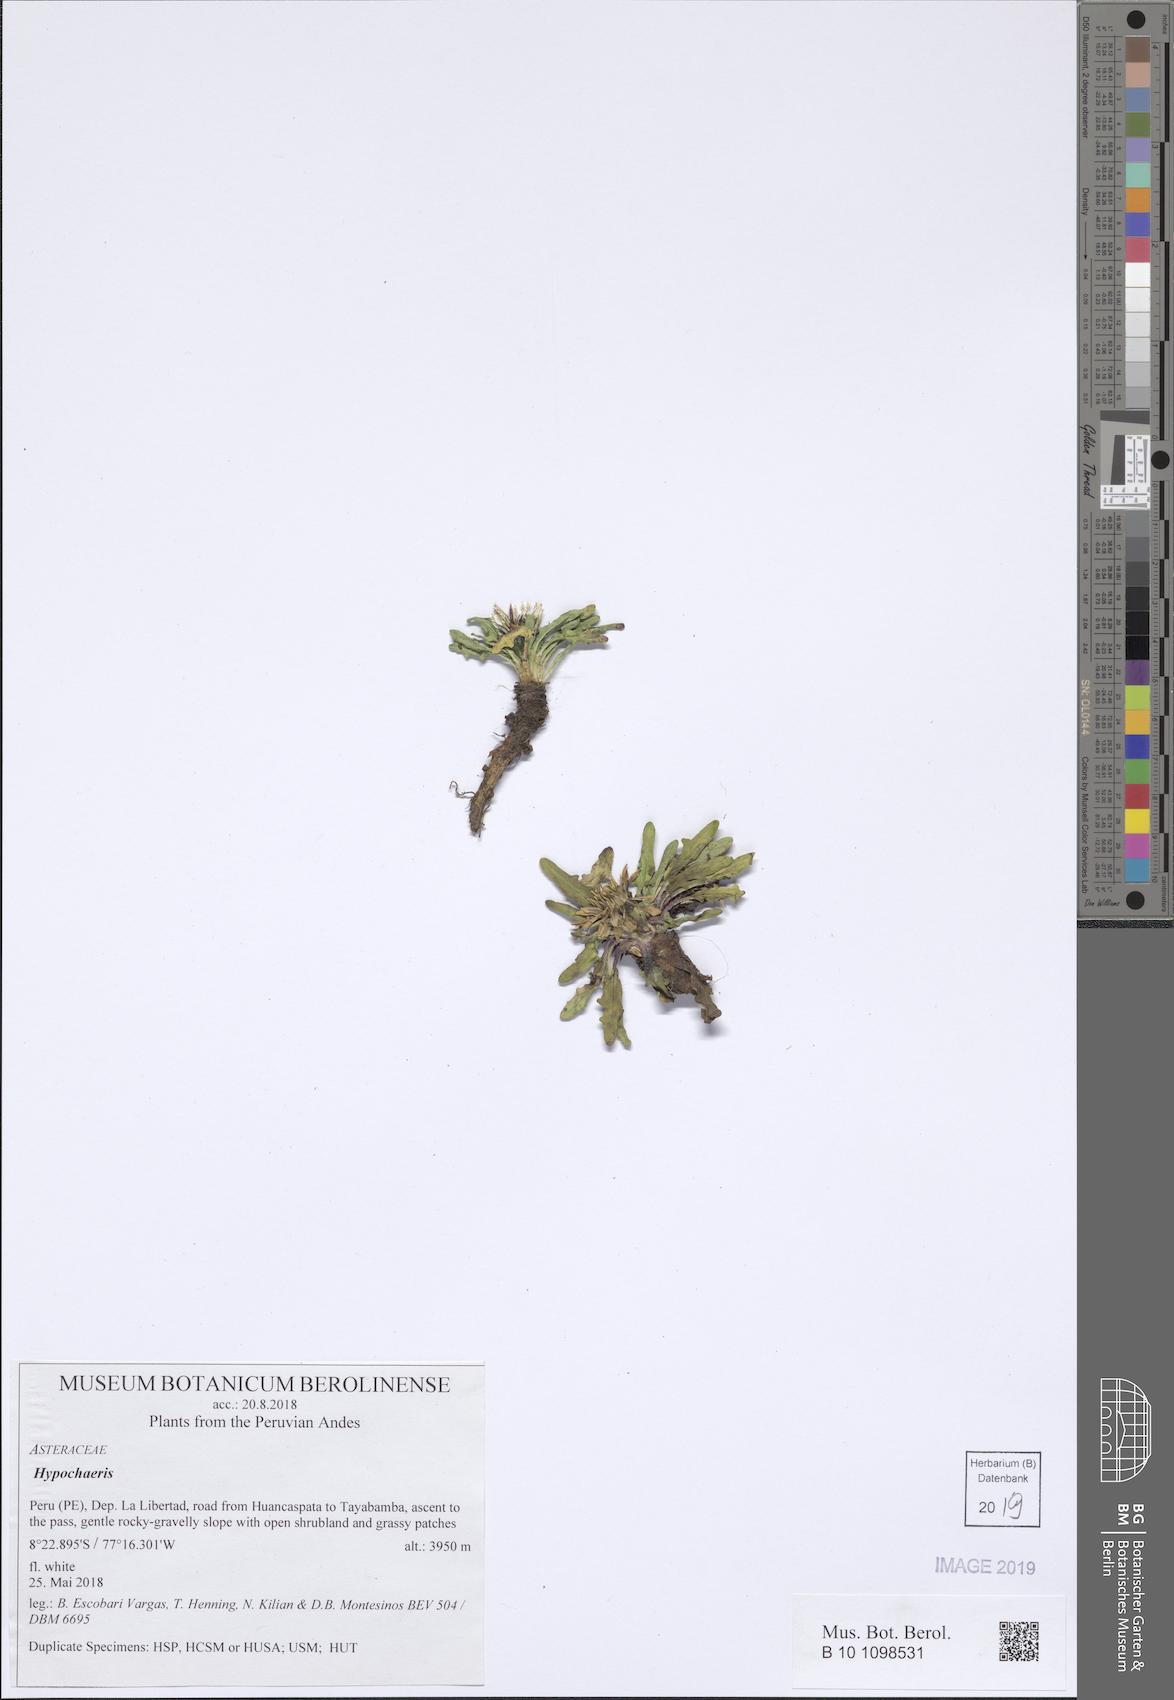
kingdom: Plantae
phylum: Tracheophyta
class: Magnoliopsida
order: Asterales
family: Asteraceae
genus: Hypochaeris
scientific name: Hypochaeris
